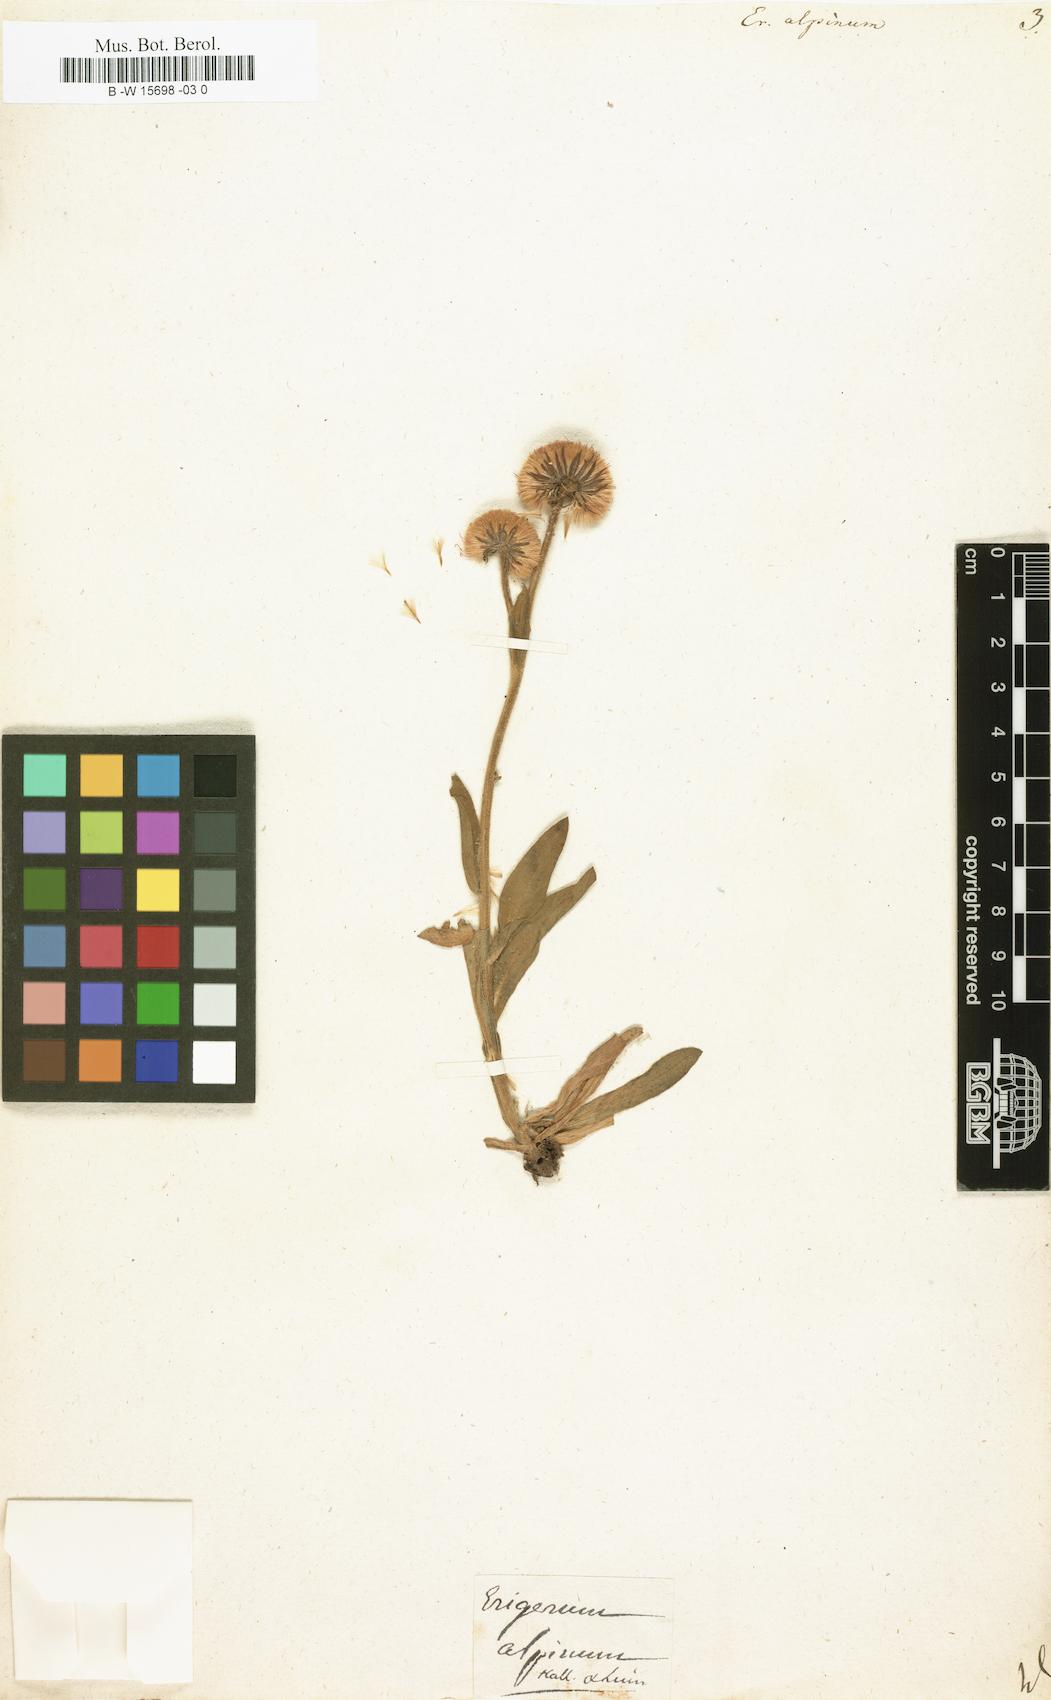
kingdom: Plantae
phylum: Tracheophyta
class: Magnoliopsida
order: Asterales
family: Asteraceae
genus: Erigeron
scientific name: Erigeron alpinus
